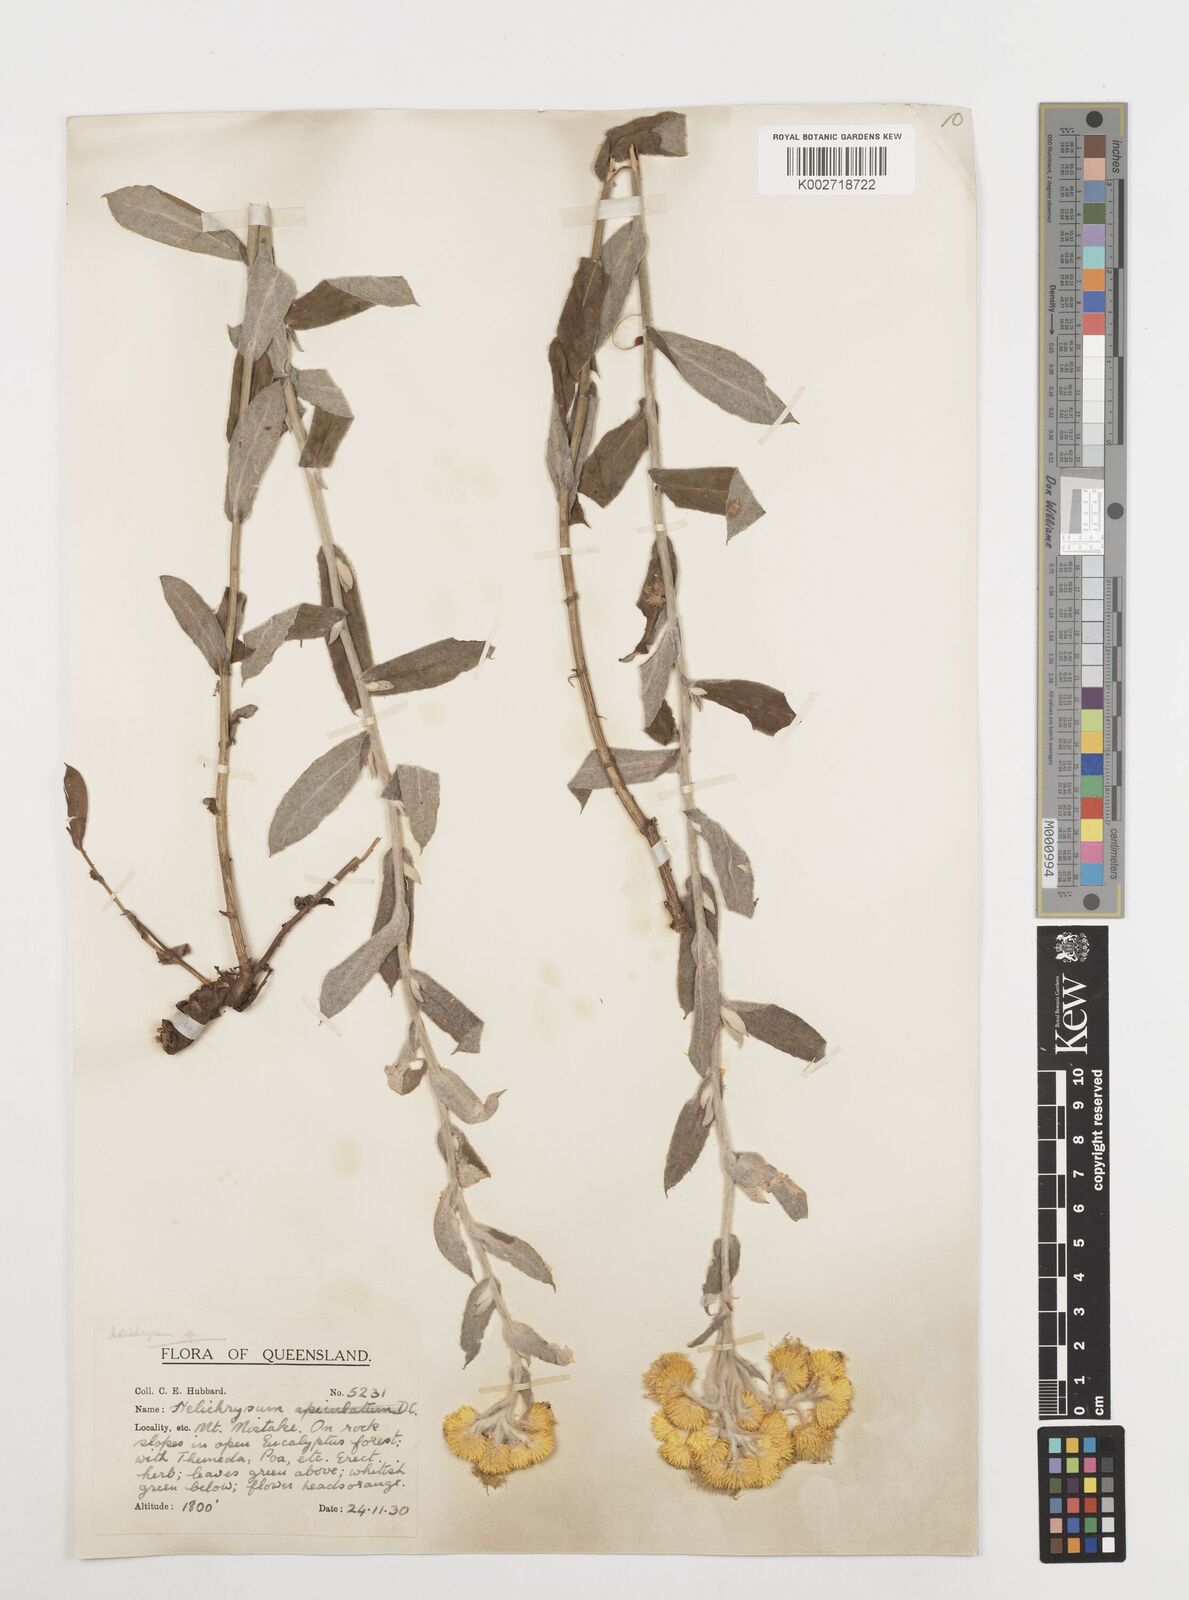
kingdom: Plantae
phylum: Tracheophyta
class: Magnoliopsida
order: Asterales
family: Asteraceae
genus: Coronidium
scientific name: Coronidium
